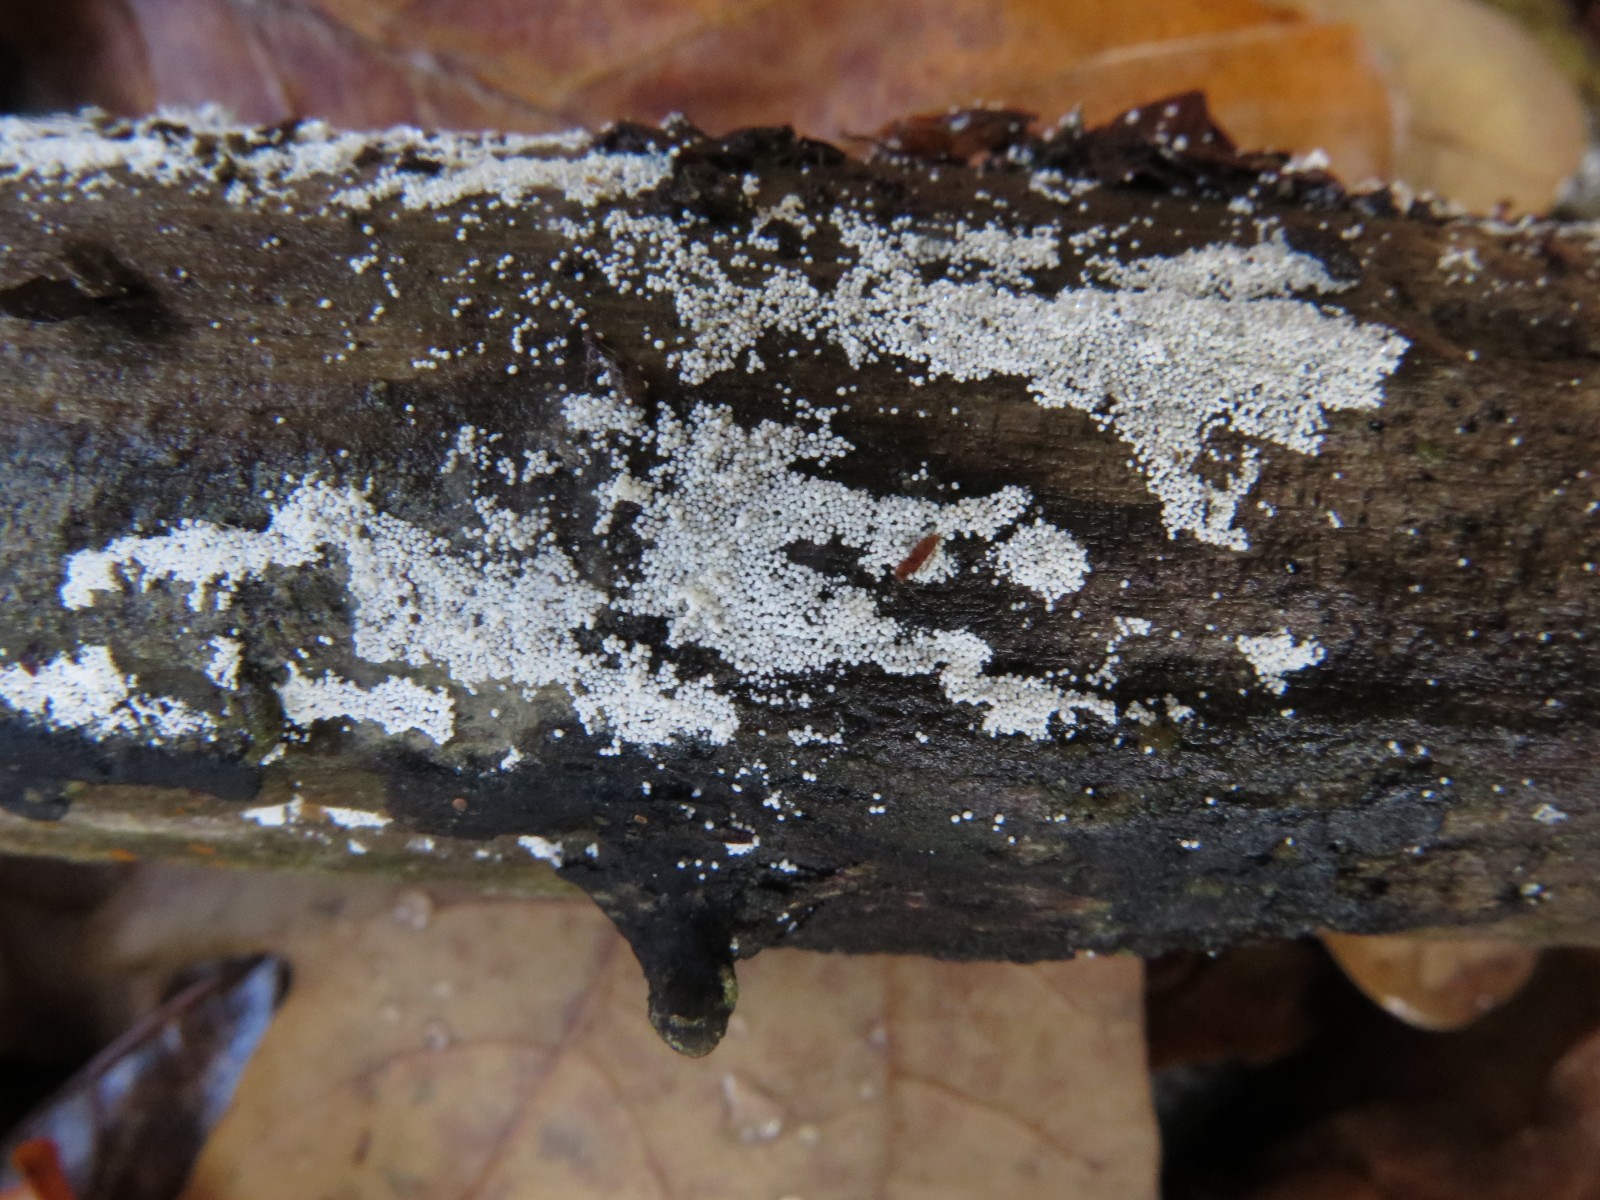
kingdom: Fungi
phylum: Basidiomycota
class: Agaricomycetes
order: Polyporales
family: Meruliaceae
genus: Bulbillomyces
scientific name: Bulbillomyces farinosus
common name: æg-kalkskind
